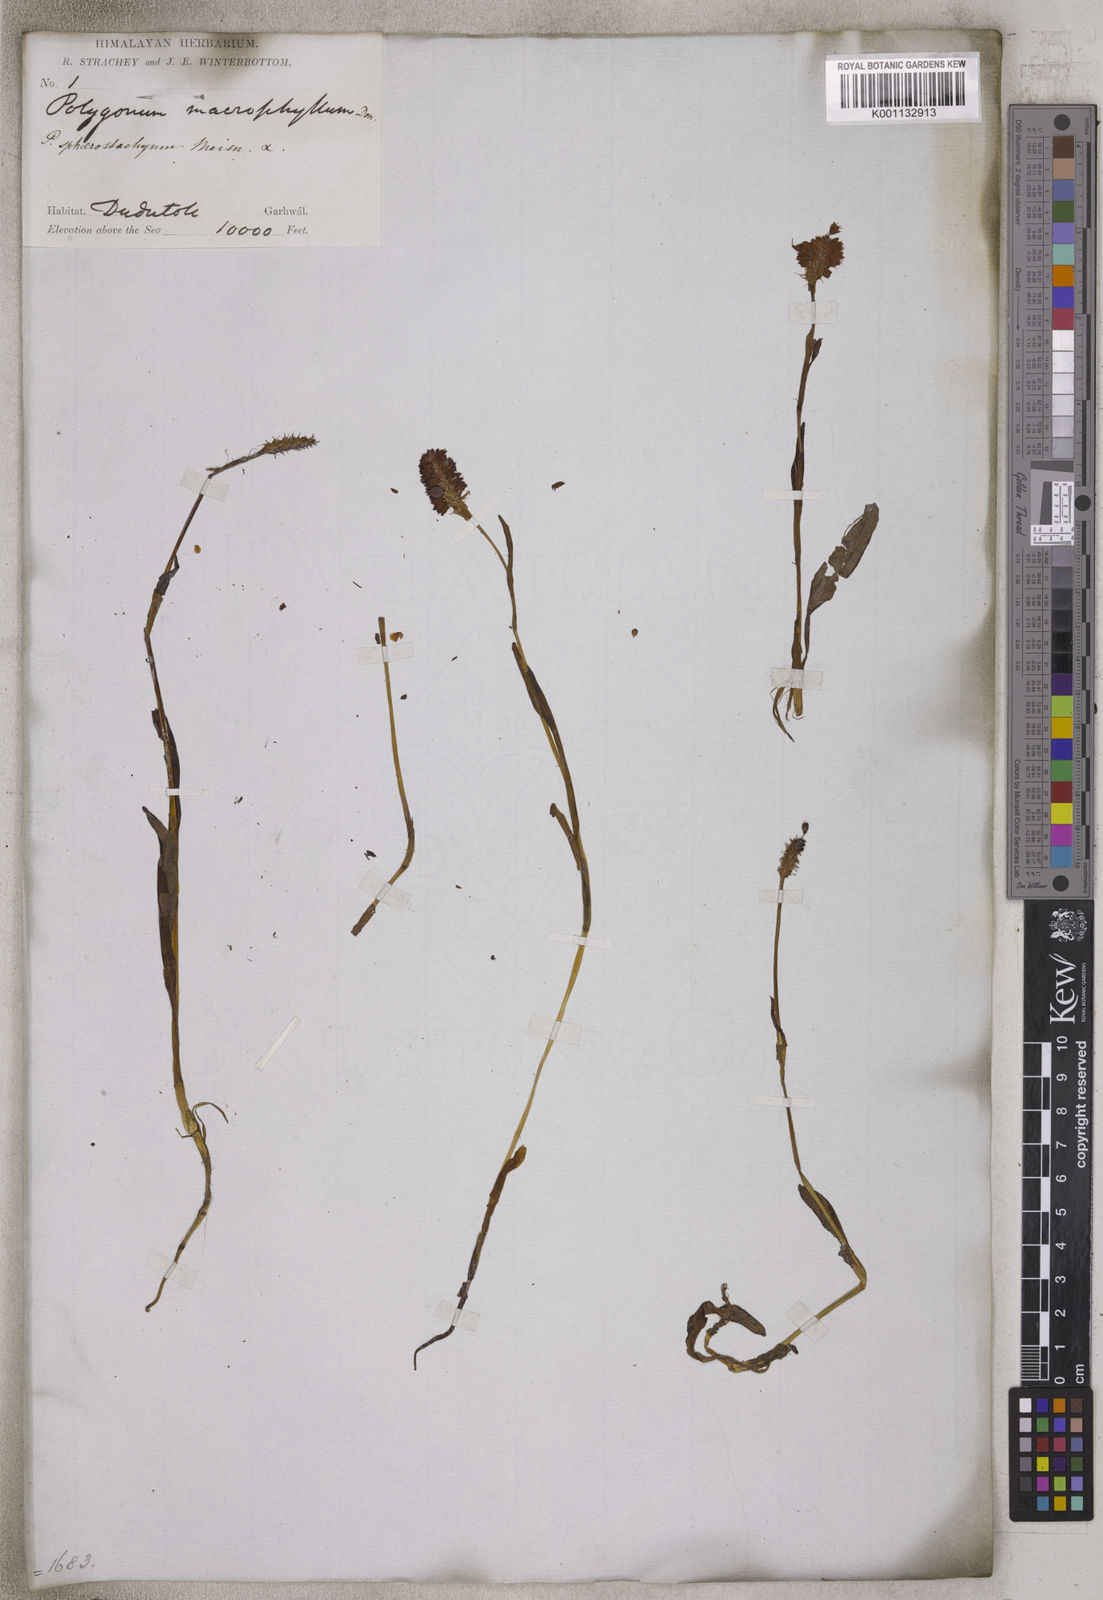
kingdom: Plantae
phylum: Tracheophyta
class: Magnoliopsida
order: Caryophyllales
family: Polygonaceae
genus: Bistorta
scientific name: Bistorta macrophylla
